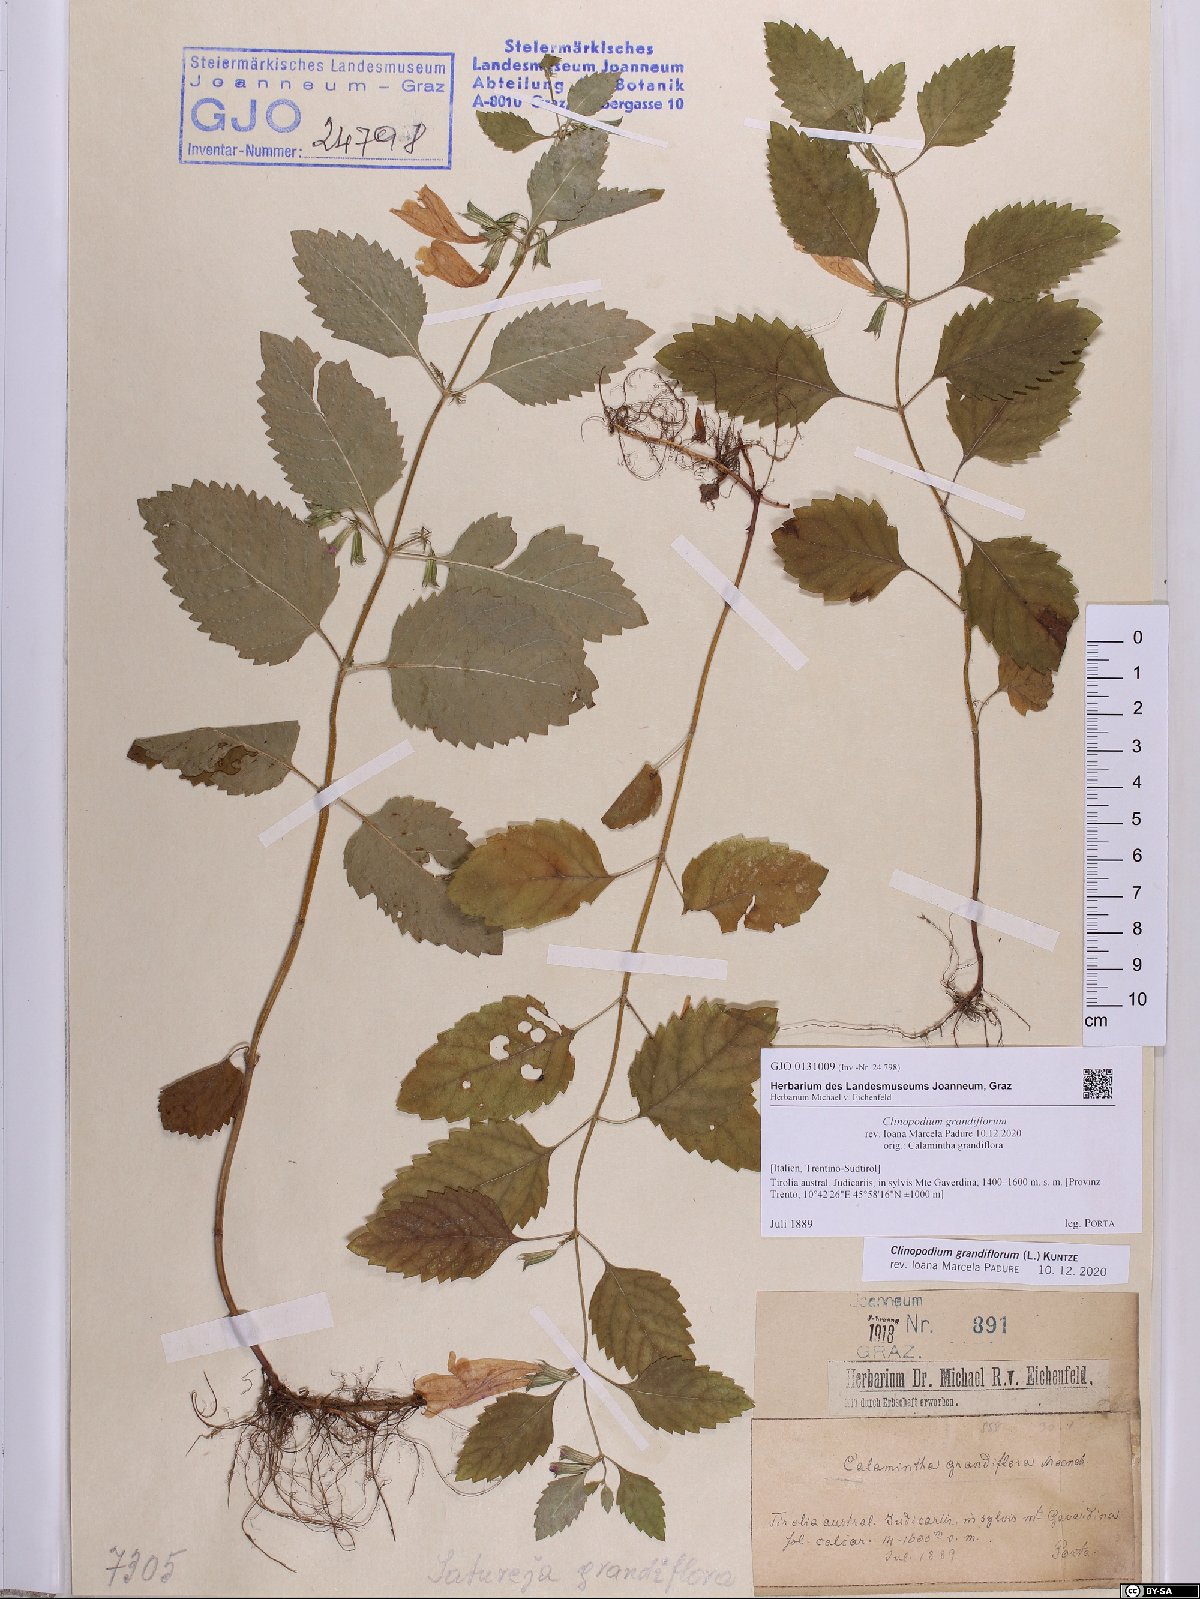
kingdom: Plantae
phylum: Tracheophyta
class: Magnoliopsida
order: Lamiales
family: Lamiaceae
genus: Clinopodium
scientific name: Clinopodium grandiflorum
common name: Greater calamint
